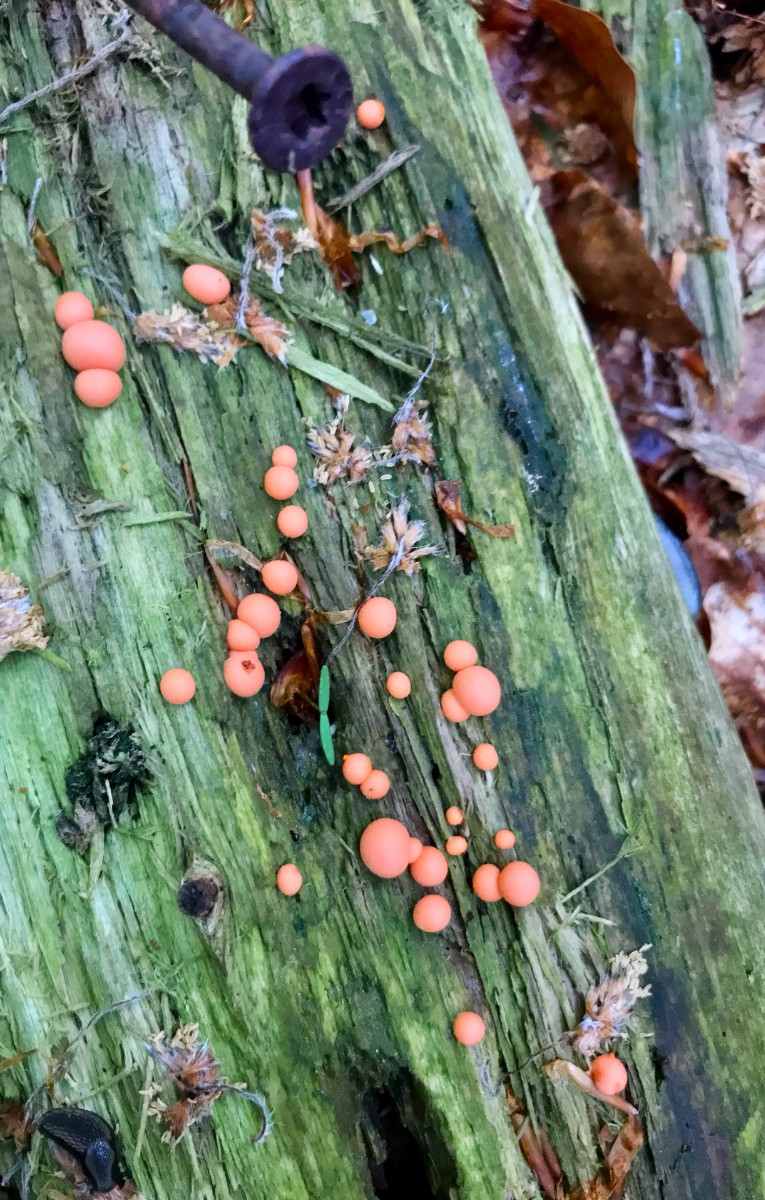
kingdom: Protozoa
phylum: Mycetozoa
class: Myxomycetes
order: Cribrariales
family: Tubiferaceae
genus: Lycogala
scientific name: Lycogala epidendrum
